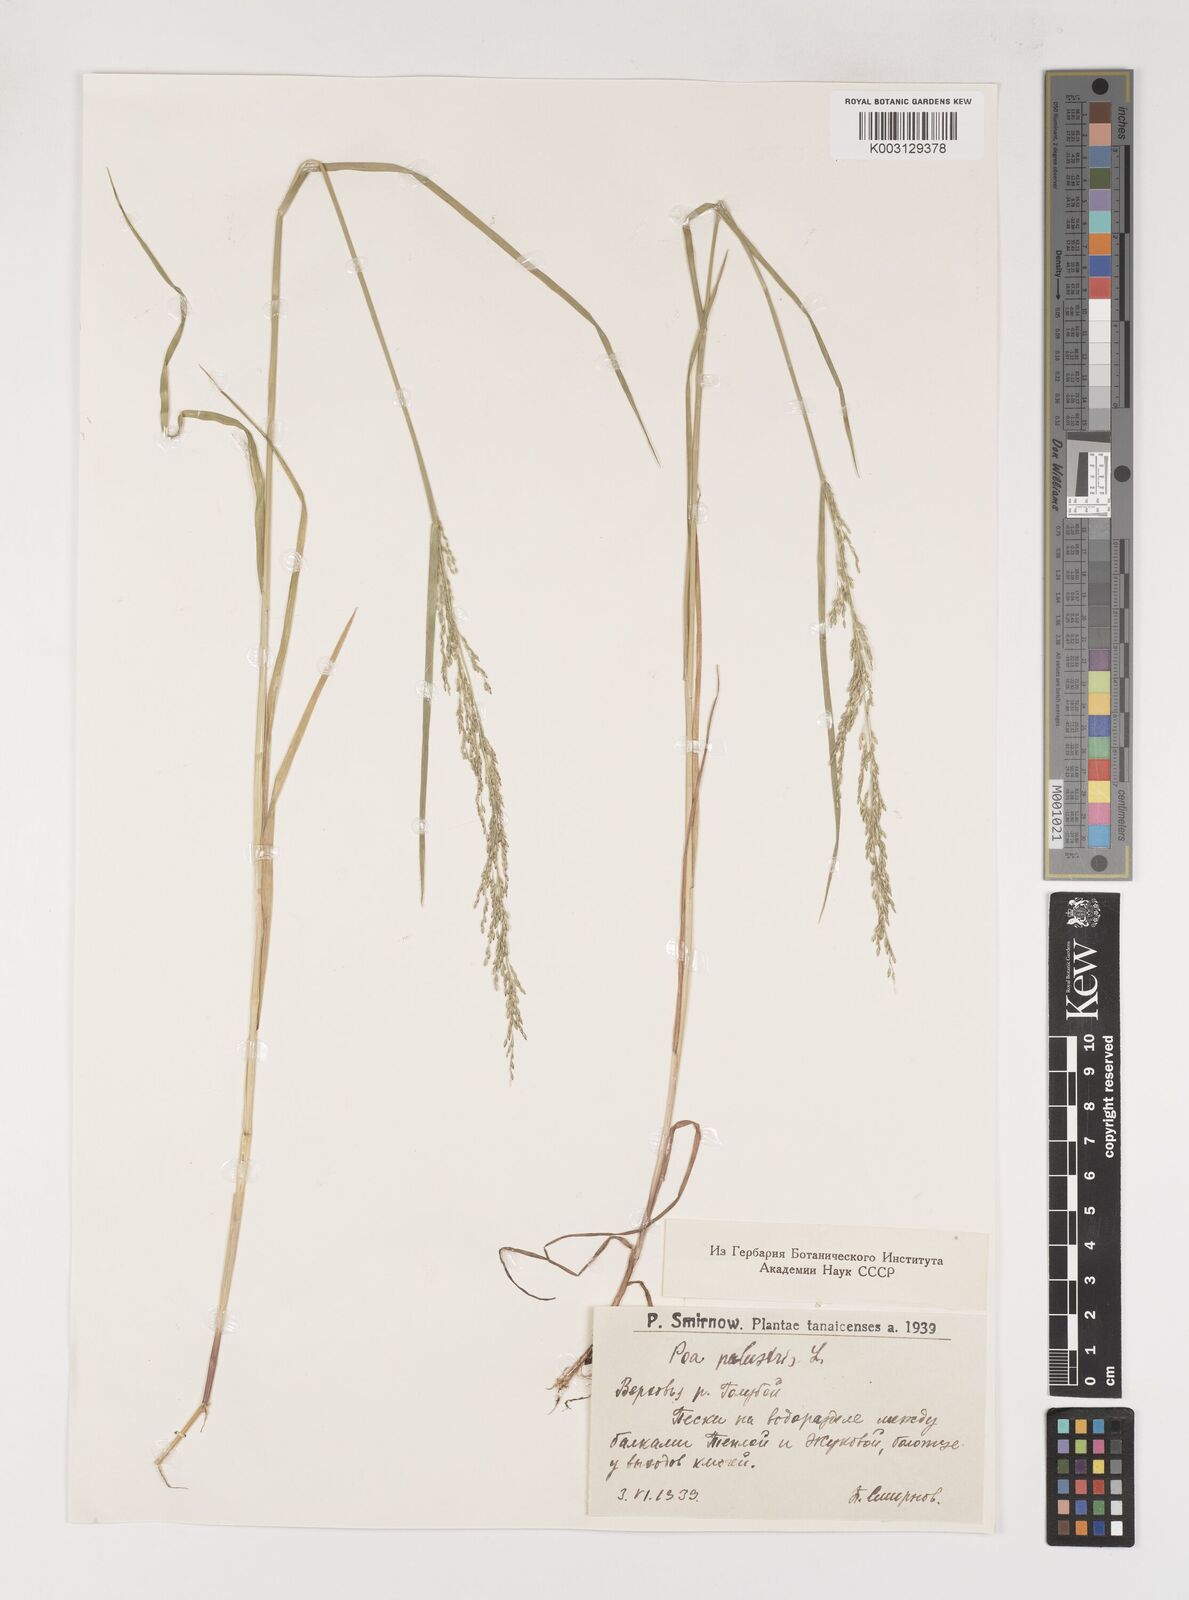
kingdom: Plantae
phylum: Tracheophyta
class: Liliopsida
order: Poales
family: Poaceae
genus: Poa
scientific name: Poa palustris
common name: Swamp meadow-grass
